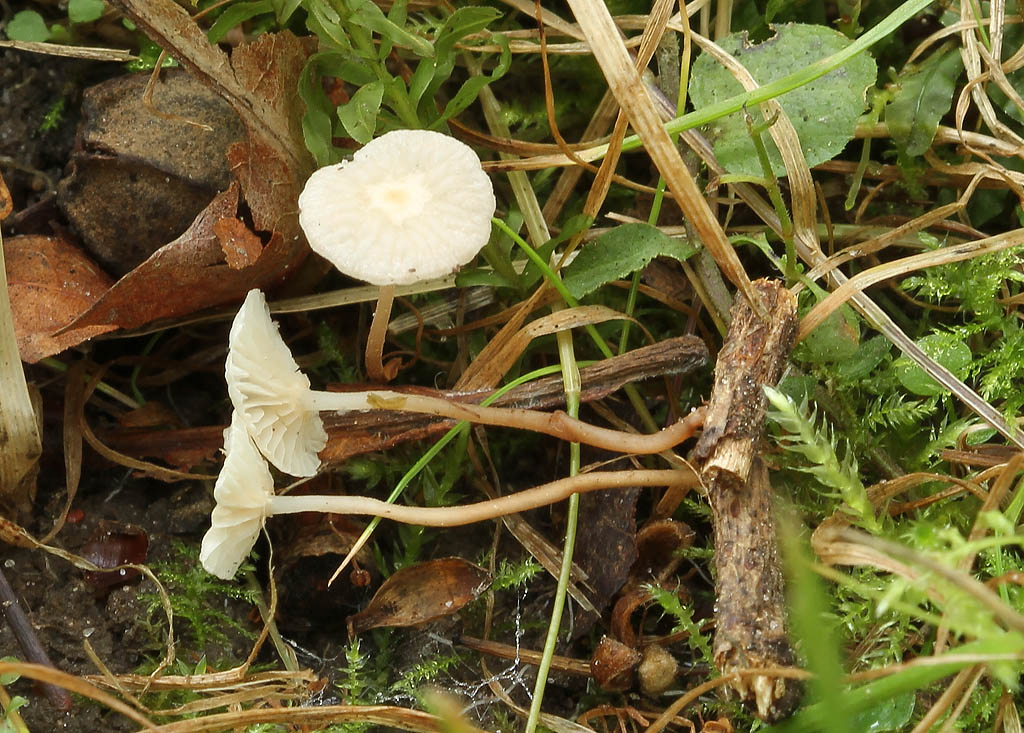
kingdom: Fungi
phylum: Basidiomycota
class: Agaricomycetes
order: Agaricales
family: Omphalotaceae
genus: Collybiopsis
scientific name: Collybiopsis vaillantii
